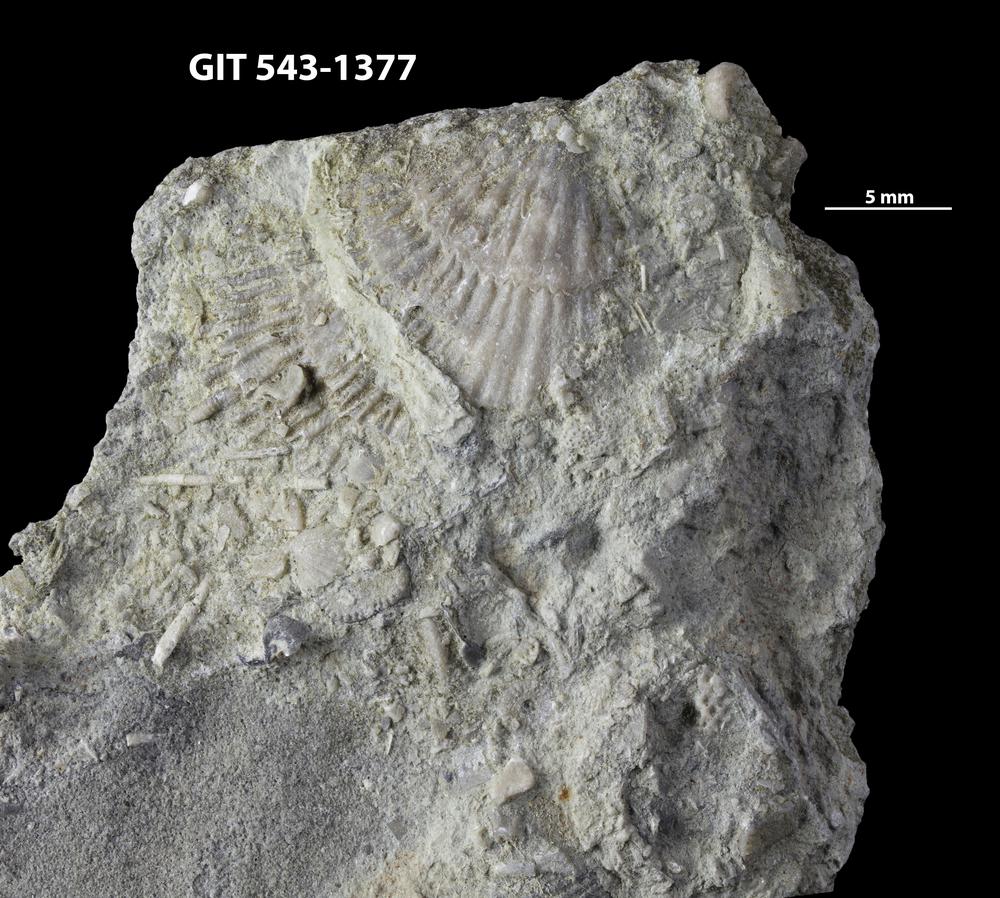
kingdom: Animalia
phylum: Brachiopoda
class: Rhynchonellata
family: Clitambonitidae
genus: Clitambonites
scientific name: Clitambonites Orthisina schmidti
